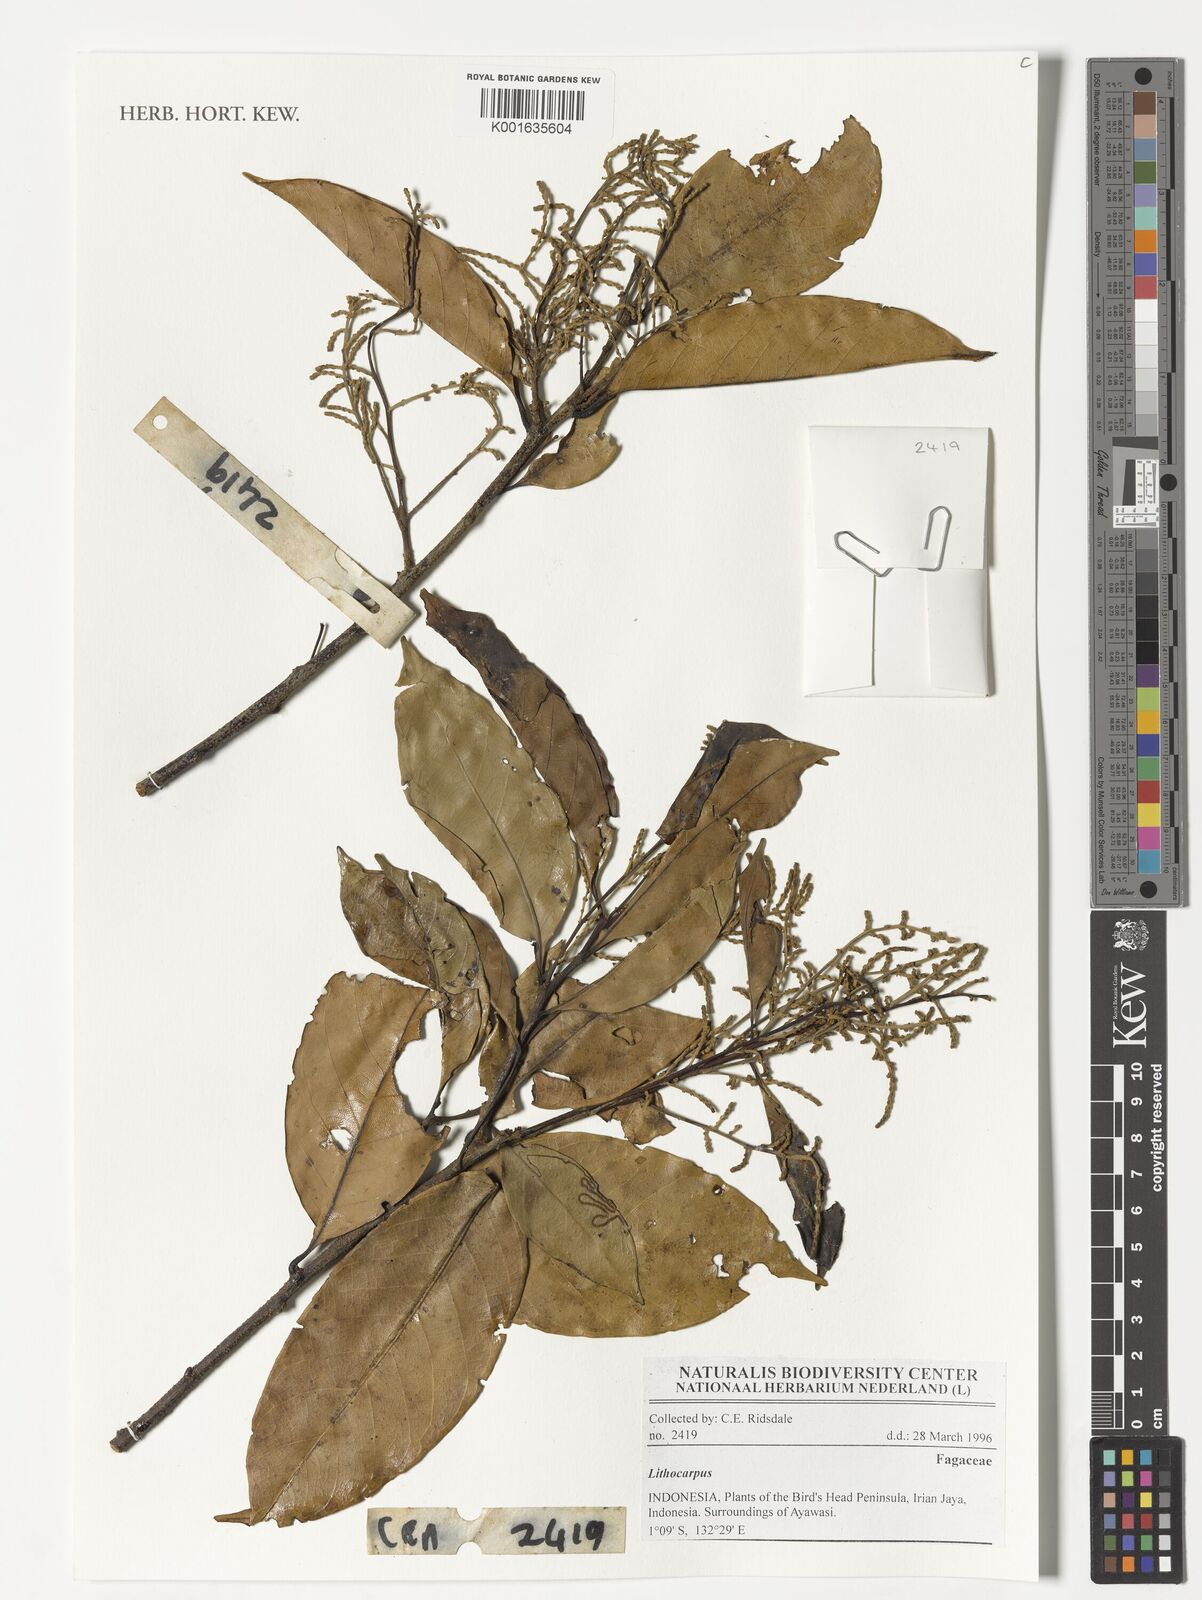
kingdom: Plantae
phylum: Tracheophyta
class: Magnoliopsida
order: Fagales
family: Fagaceae
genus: Lithocarpus
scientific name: Lithocarpus
